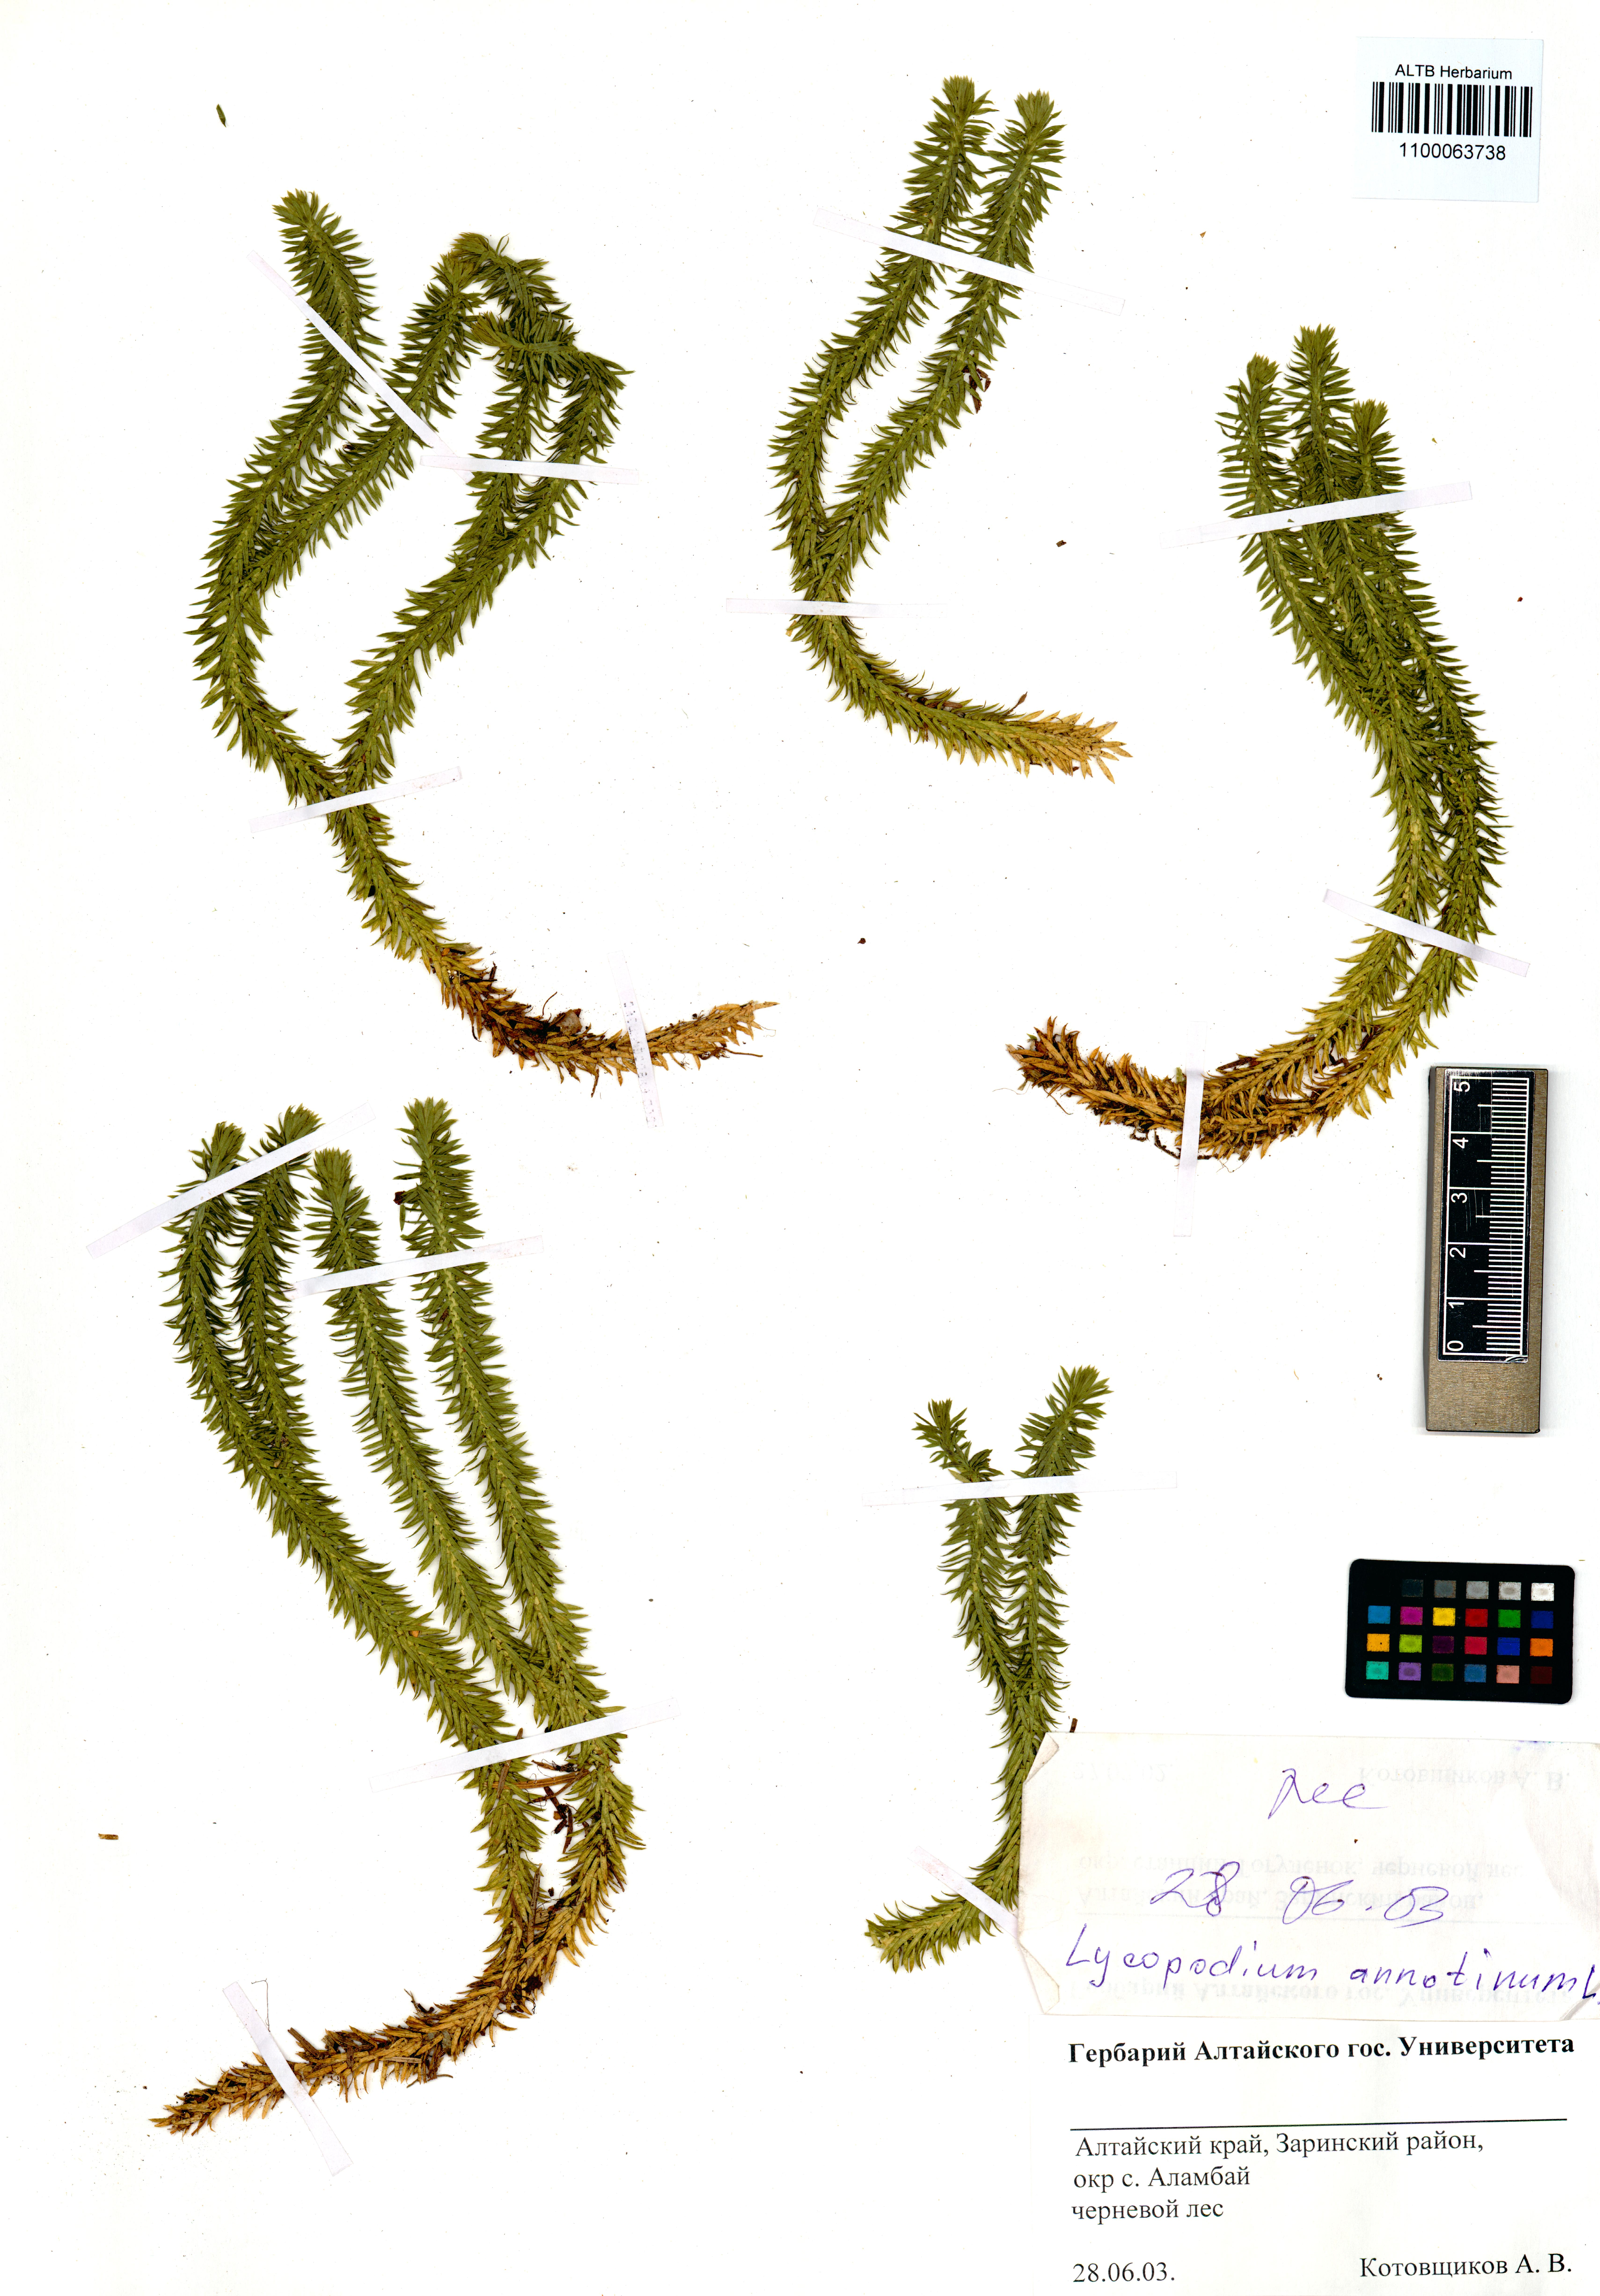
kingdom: Plantae
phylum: Tracheophyta
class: Lycopodiopsida
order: Lycopodiales
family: Lycopodiaceae
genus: Spinulum
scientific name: Spinulum annotinum
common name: Interrupted club-moss
